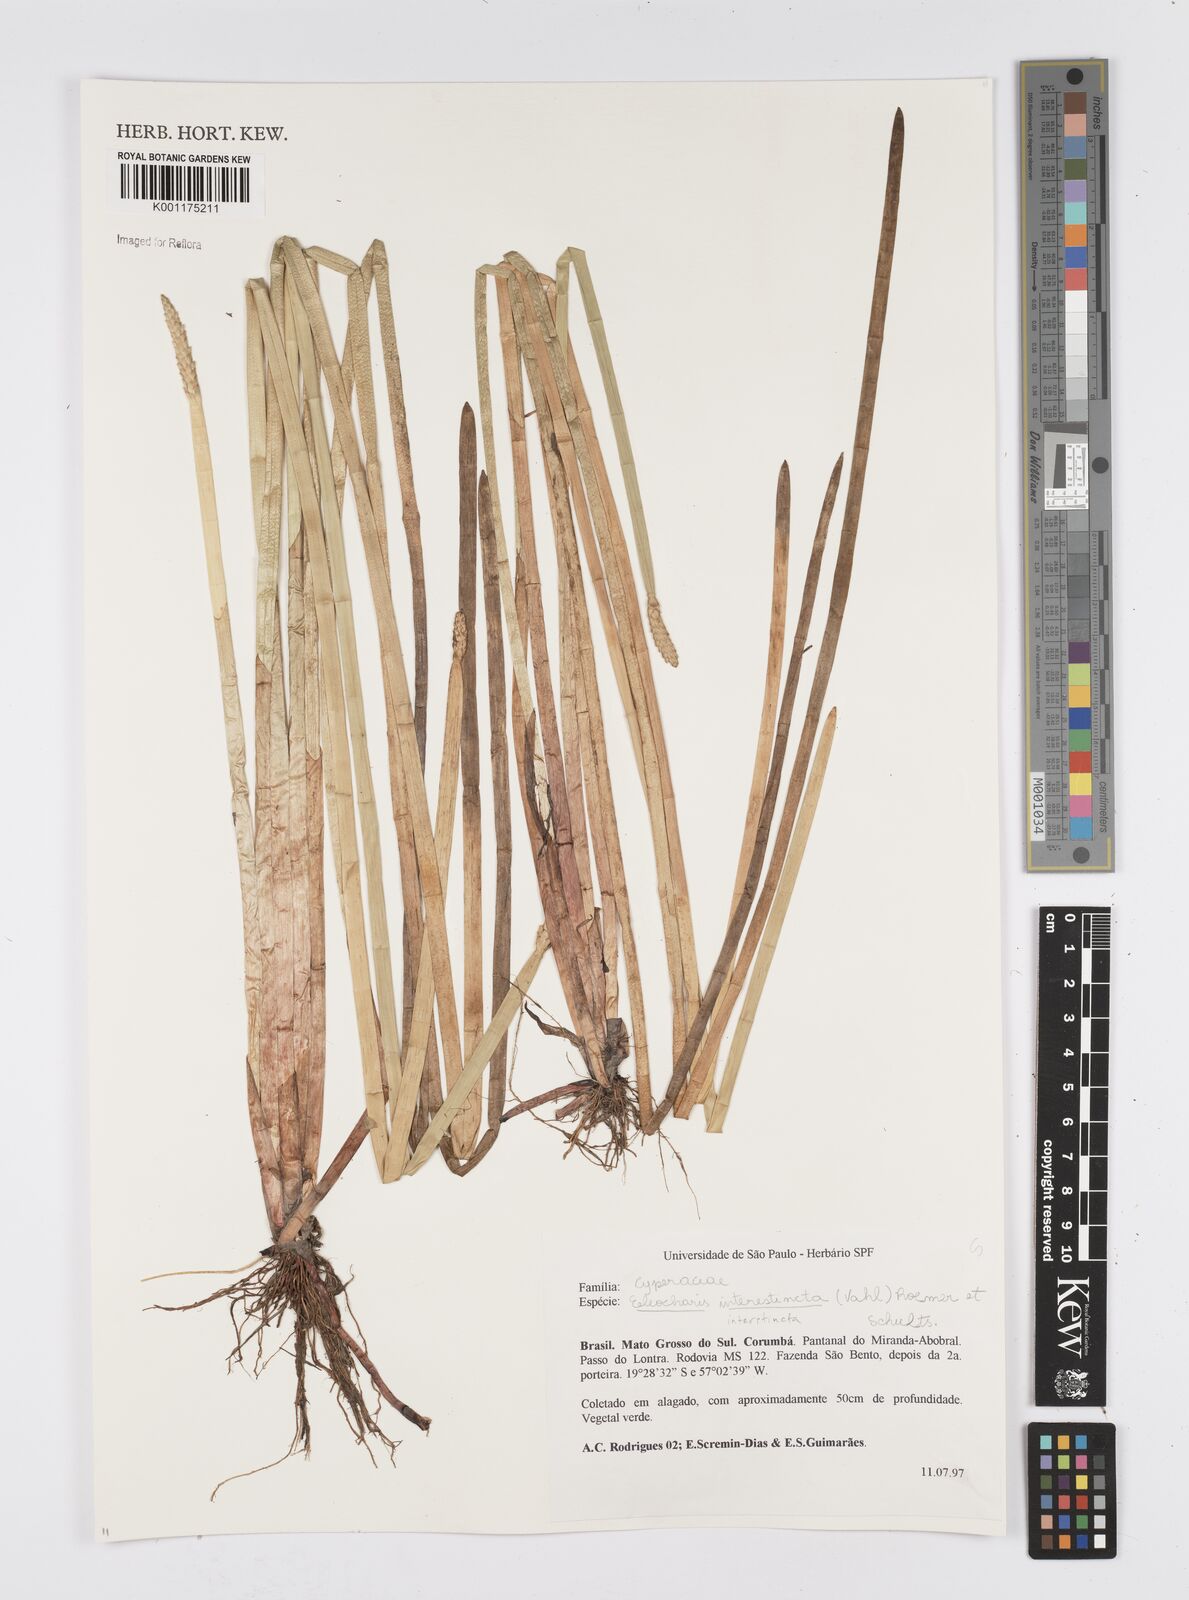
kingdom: Plantae
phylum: Tracheophyta
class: Liliopsida
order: Poales
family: Cyperaceae
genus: Eleocharis
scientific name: Eleocharis interstincta
